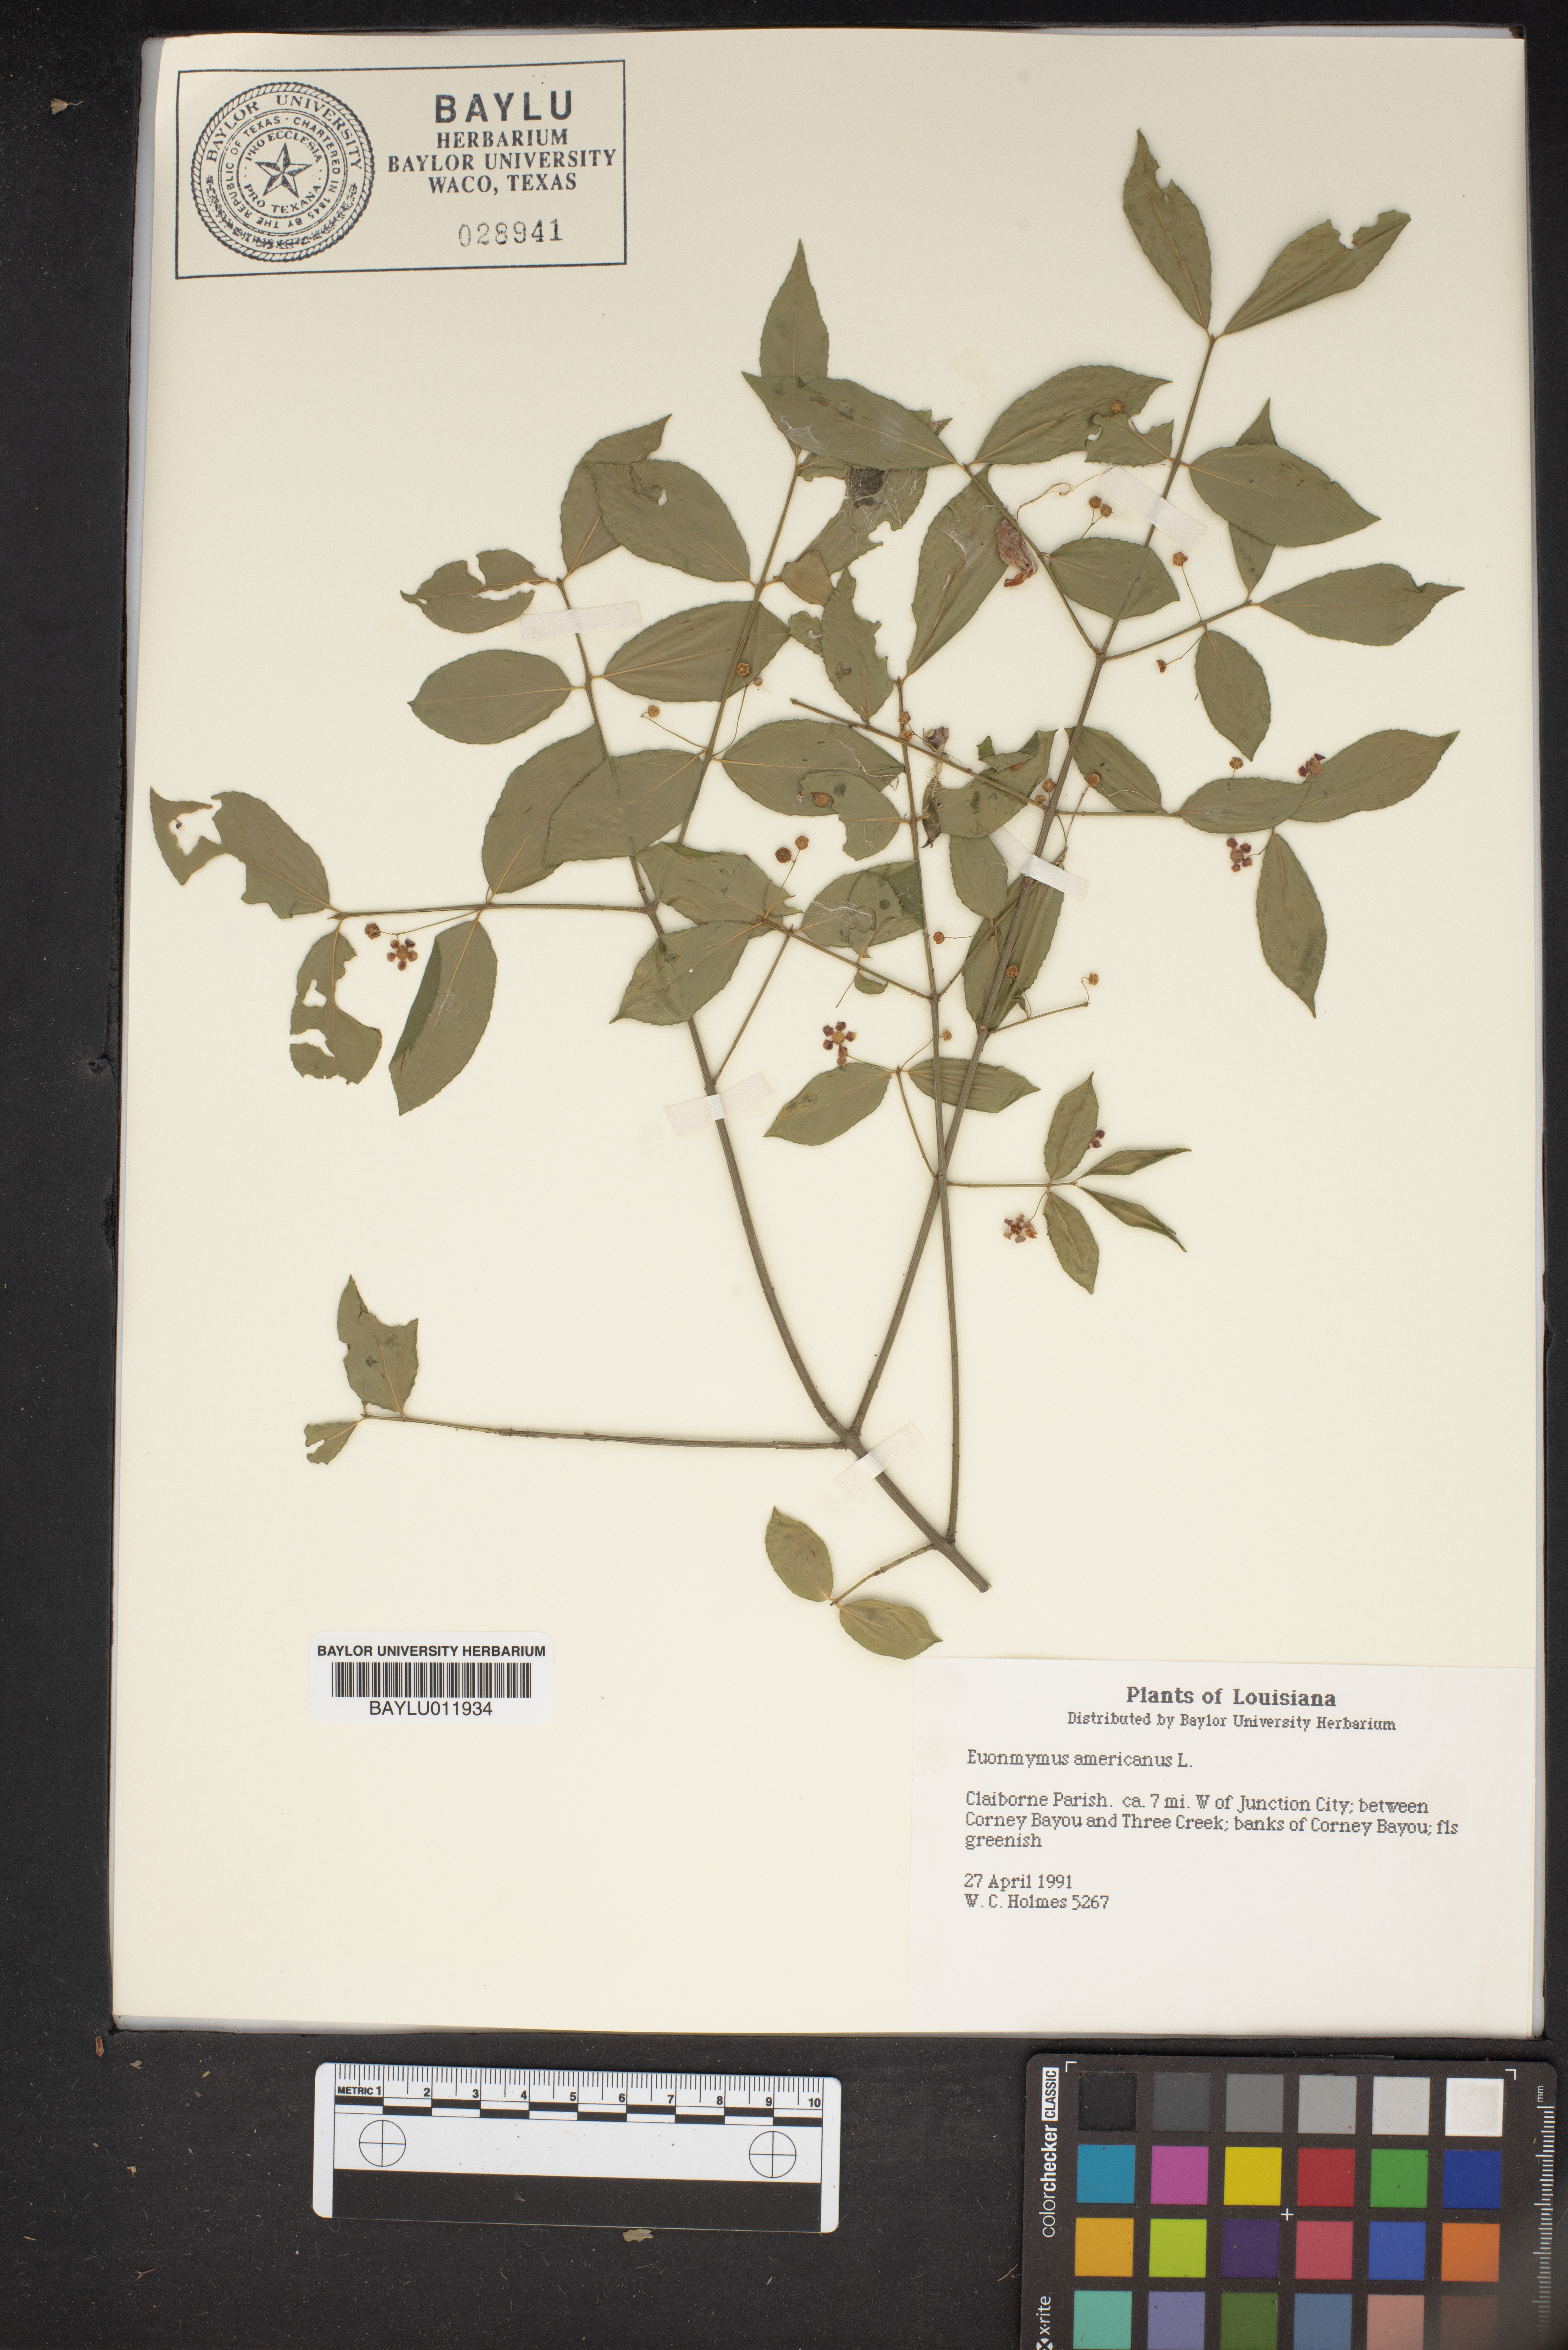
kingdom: Plantae
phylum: Tracheophyta
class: Magnoliopsida
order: Celastrales
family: Celastraceae
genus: Euonymus
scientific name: Euonymus americanus
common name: Bursting-heart
